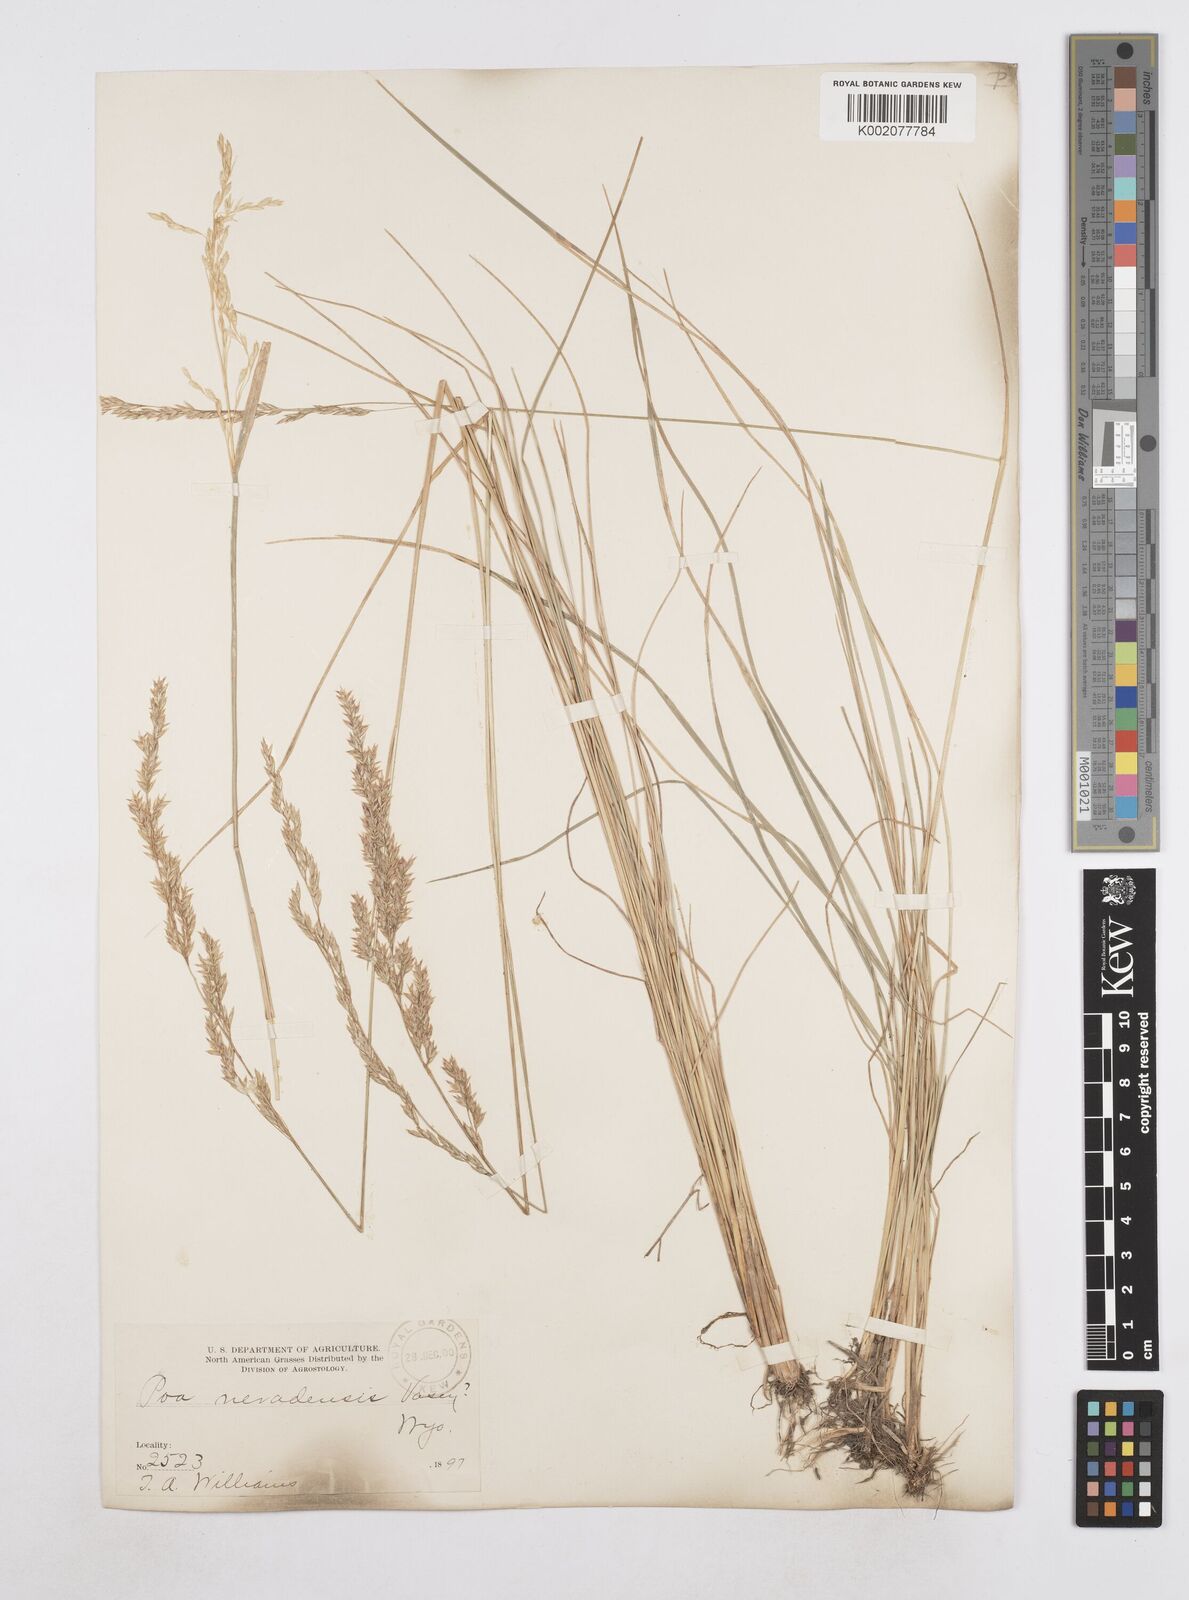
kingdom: Plantae
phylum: Tracheophyta
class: Liliopsida
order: Poales
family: Poaceae
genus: Poa
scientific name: Poa secunda
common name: Sandberg bluegrass
